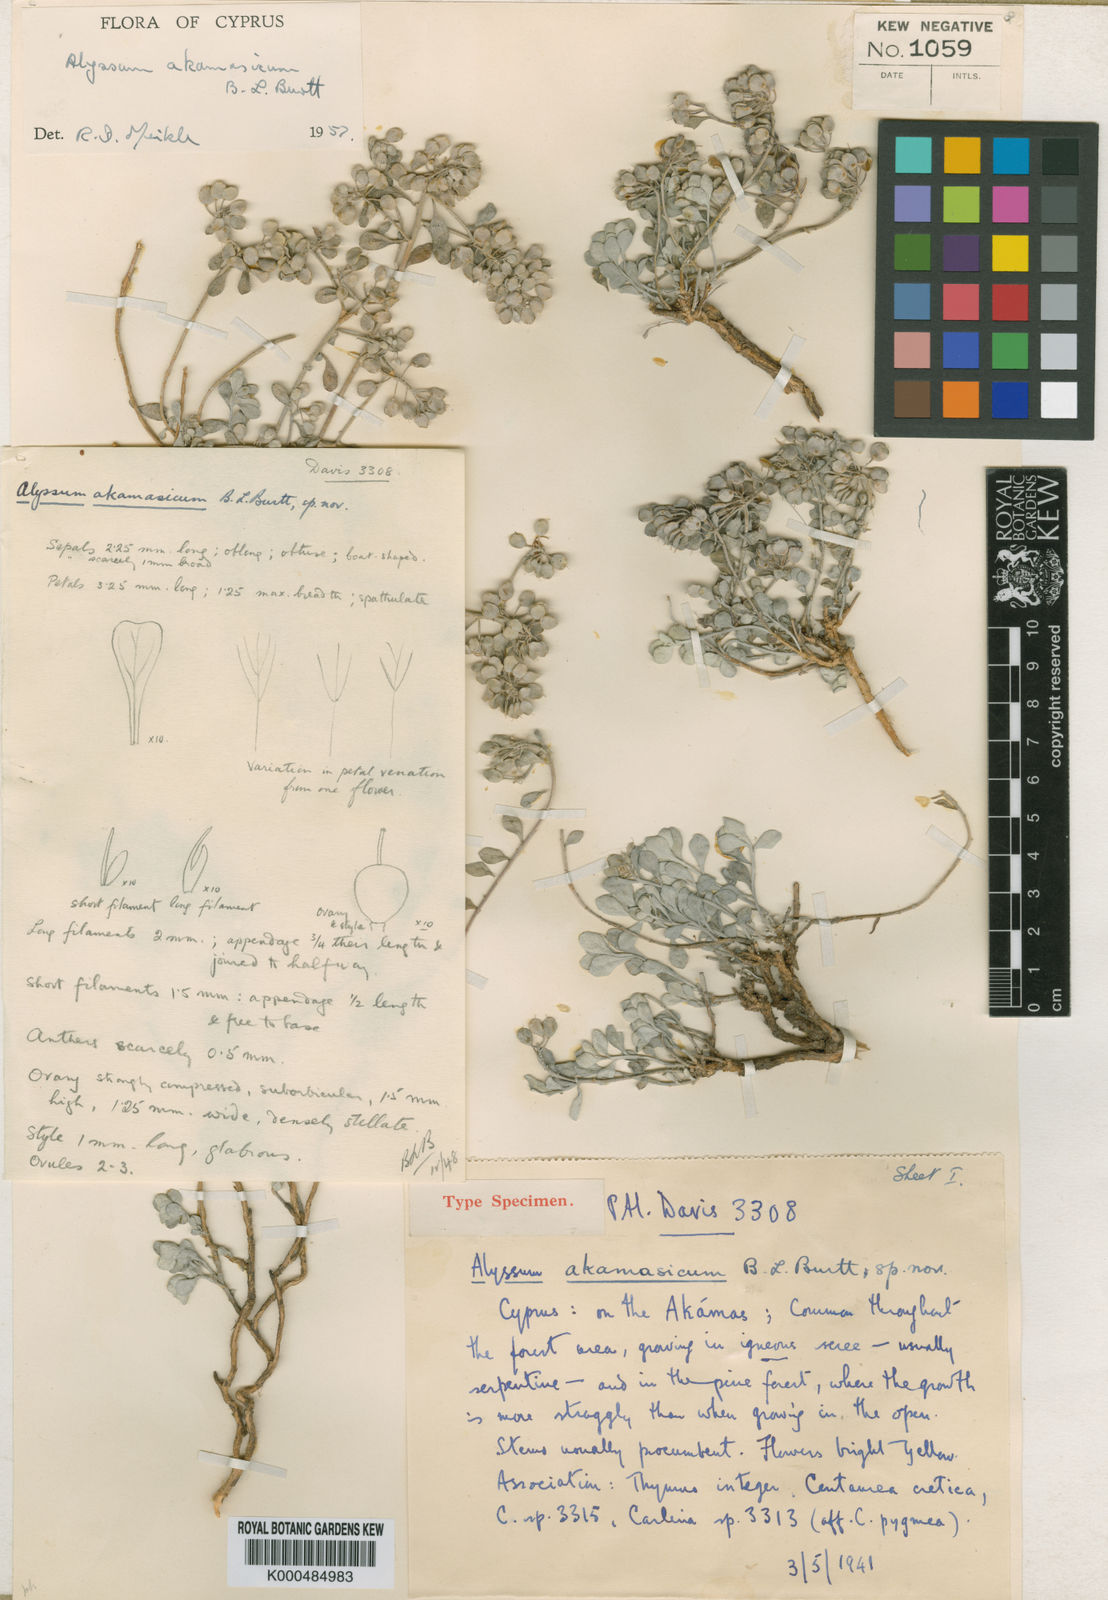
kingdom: Plantae
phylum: Tracheophyta
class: Magnoliopsida
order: Brassicales
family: Brassicaceae
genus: Odontarrhena
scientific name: Odontarrhena akamasica
